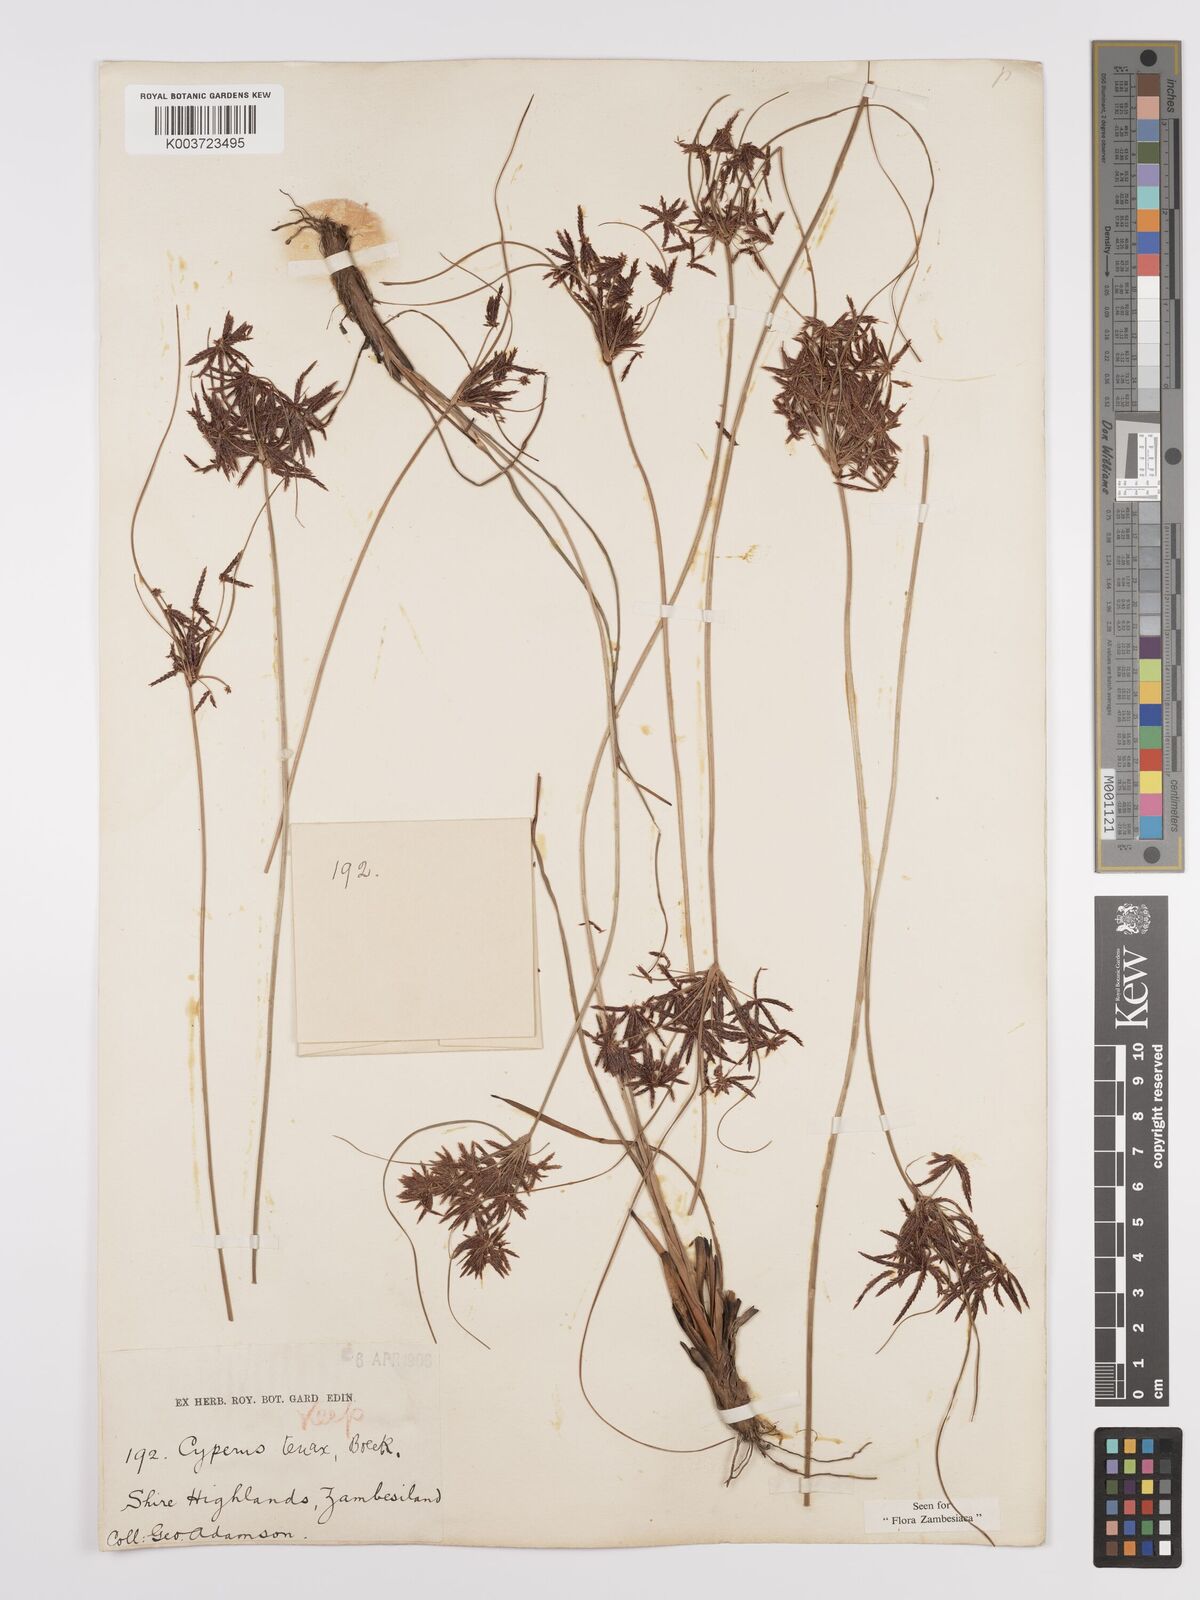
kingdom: Plantae
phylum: Tracheophyta
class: Liliopsida
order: Poales
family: Cyperaceae
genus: Cyperus
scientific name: Cyperus tenax
